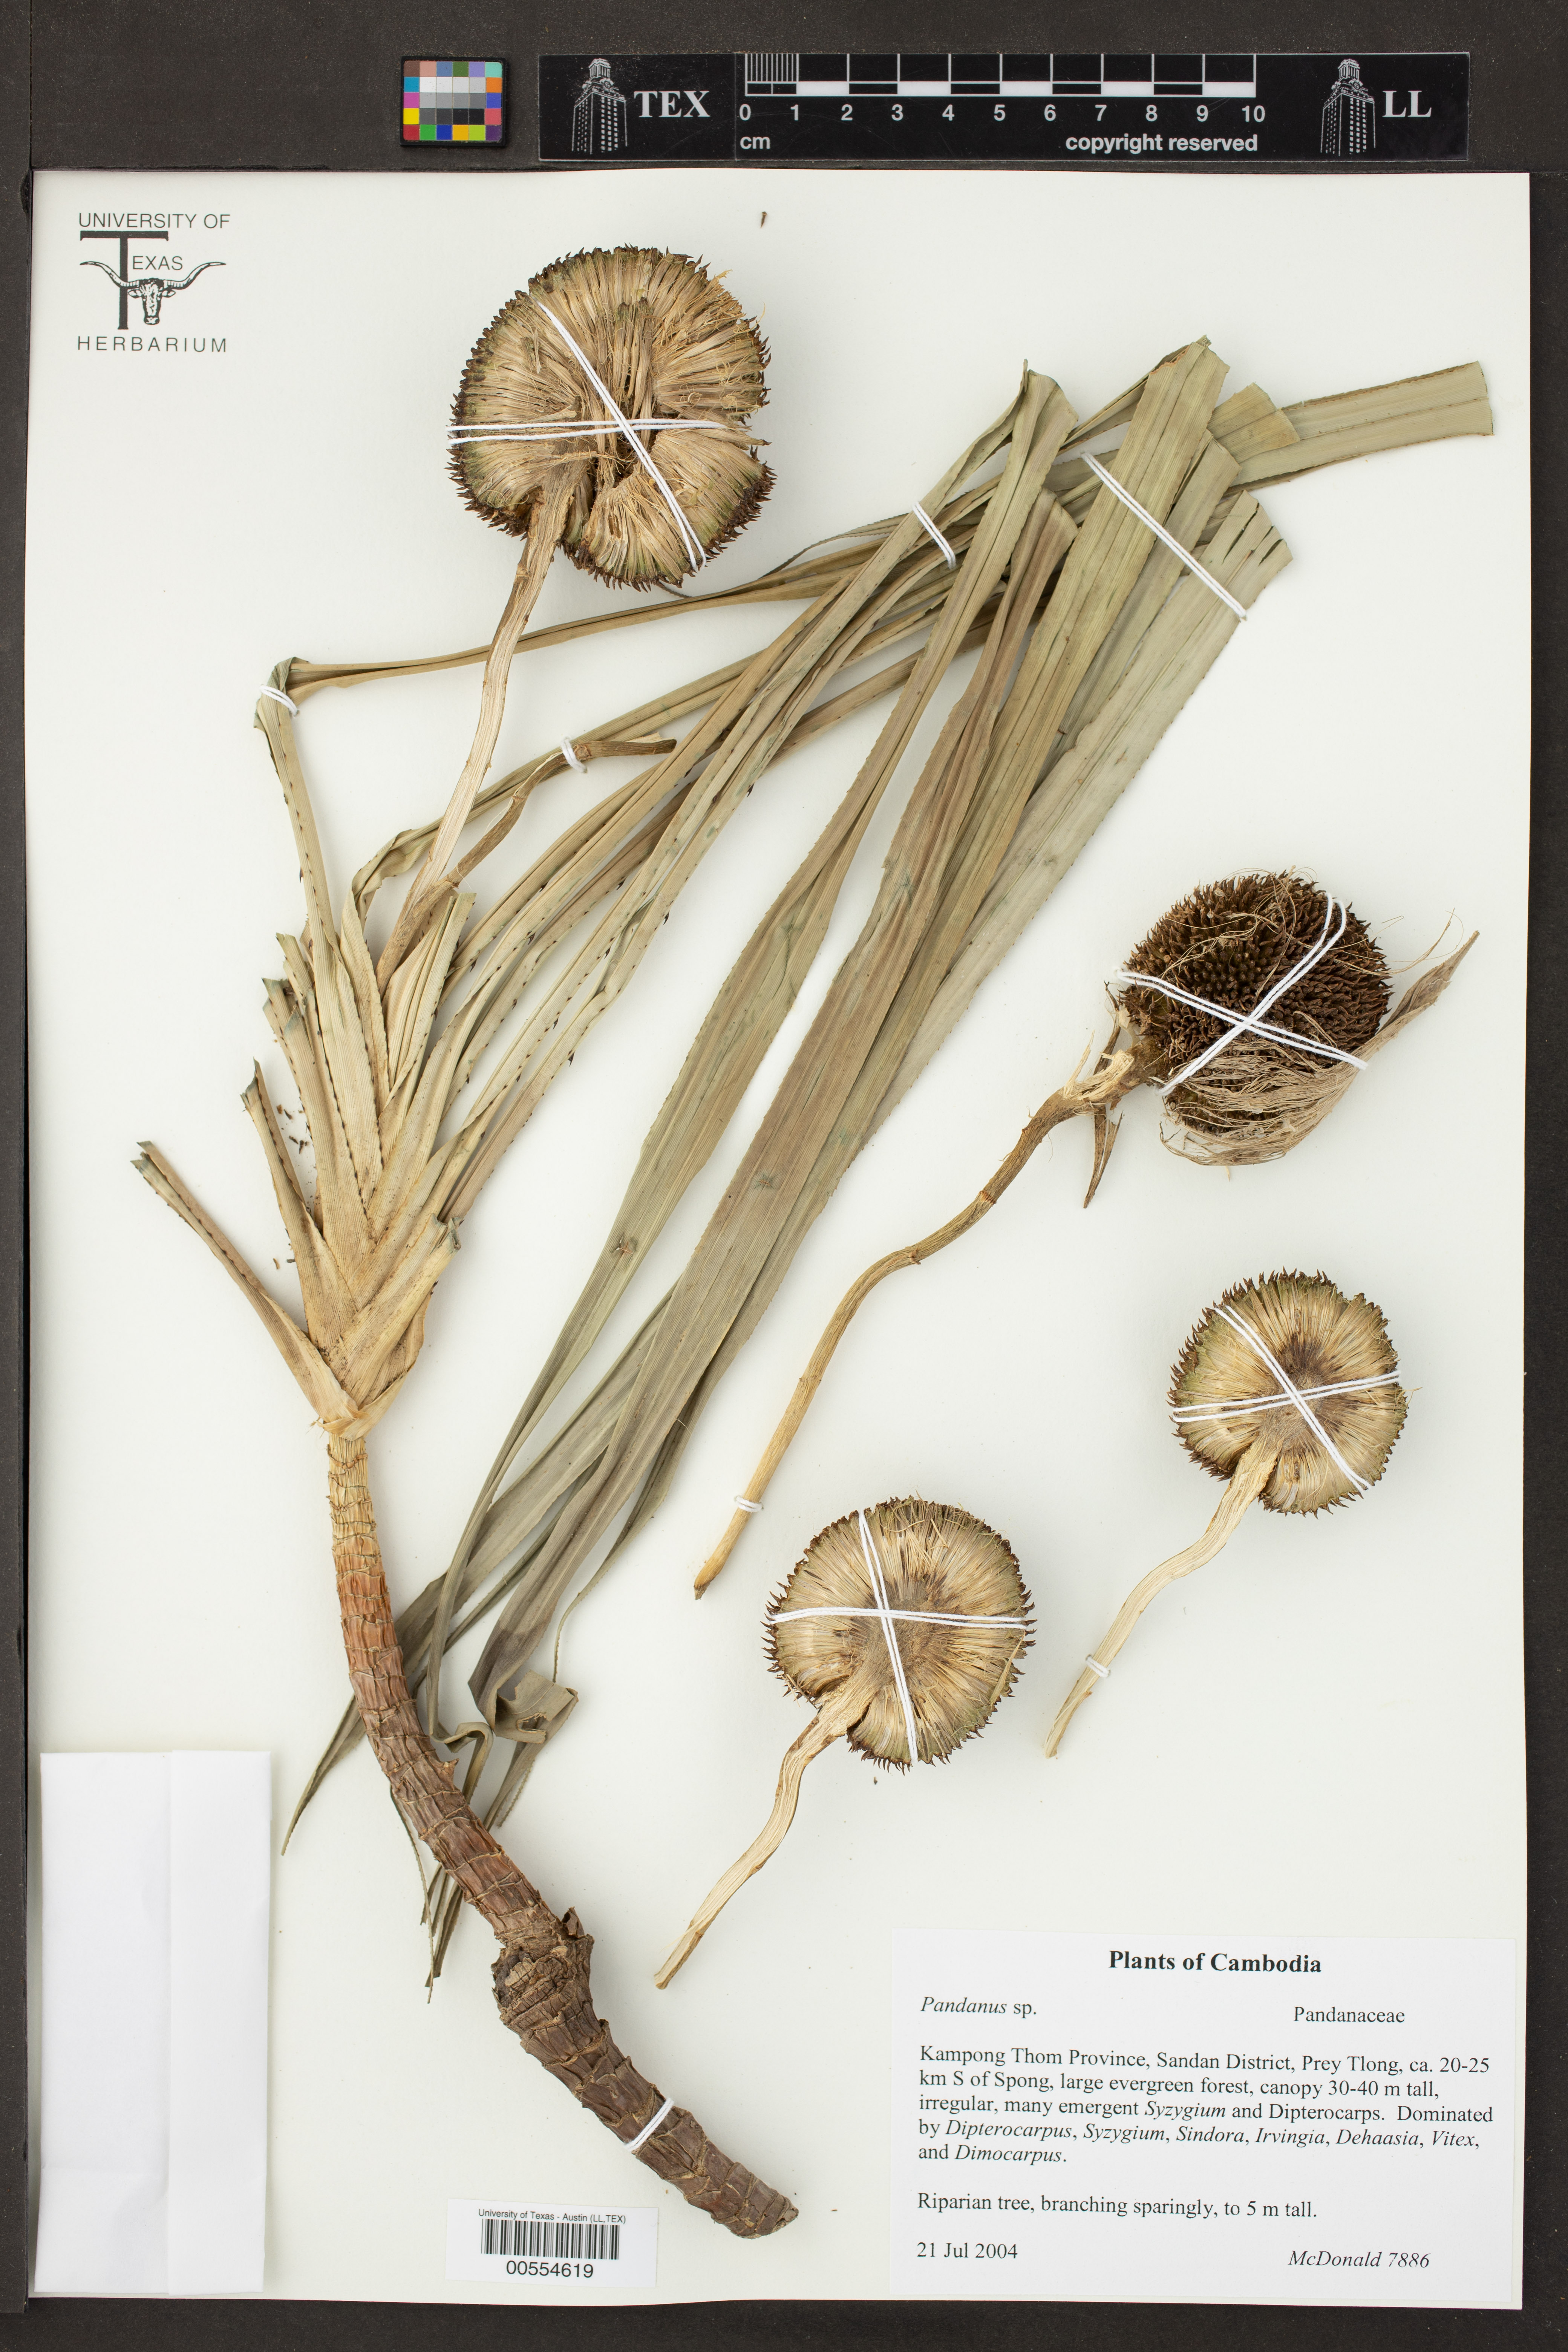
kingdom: Plantae
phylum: Tracheophyta
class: Liliopsida
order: Pandanales
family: Pandanaceae
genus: Pandanus
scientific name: Pandanus
